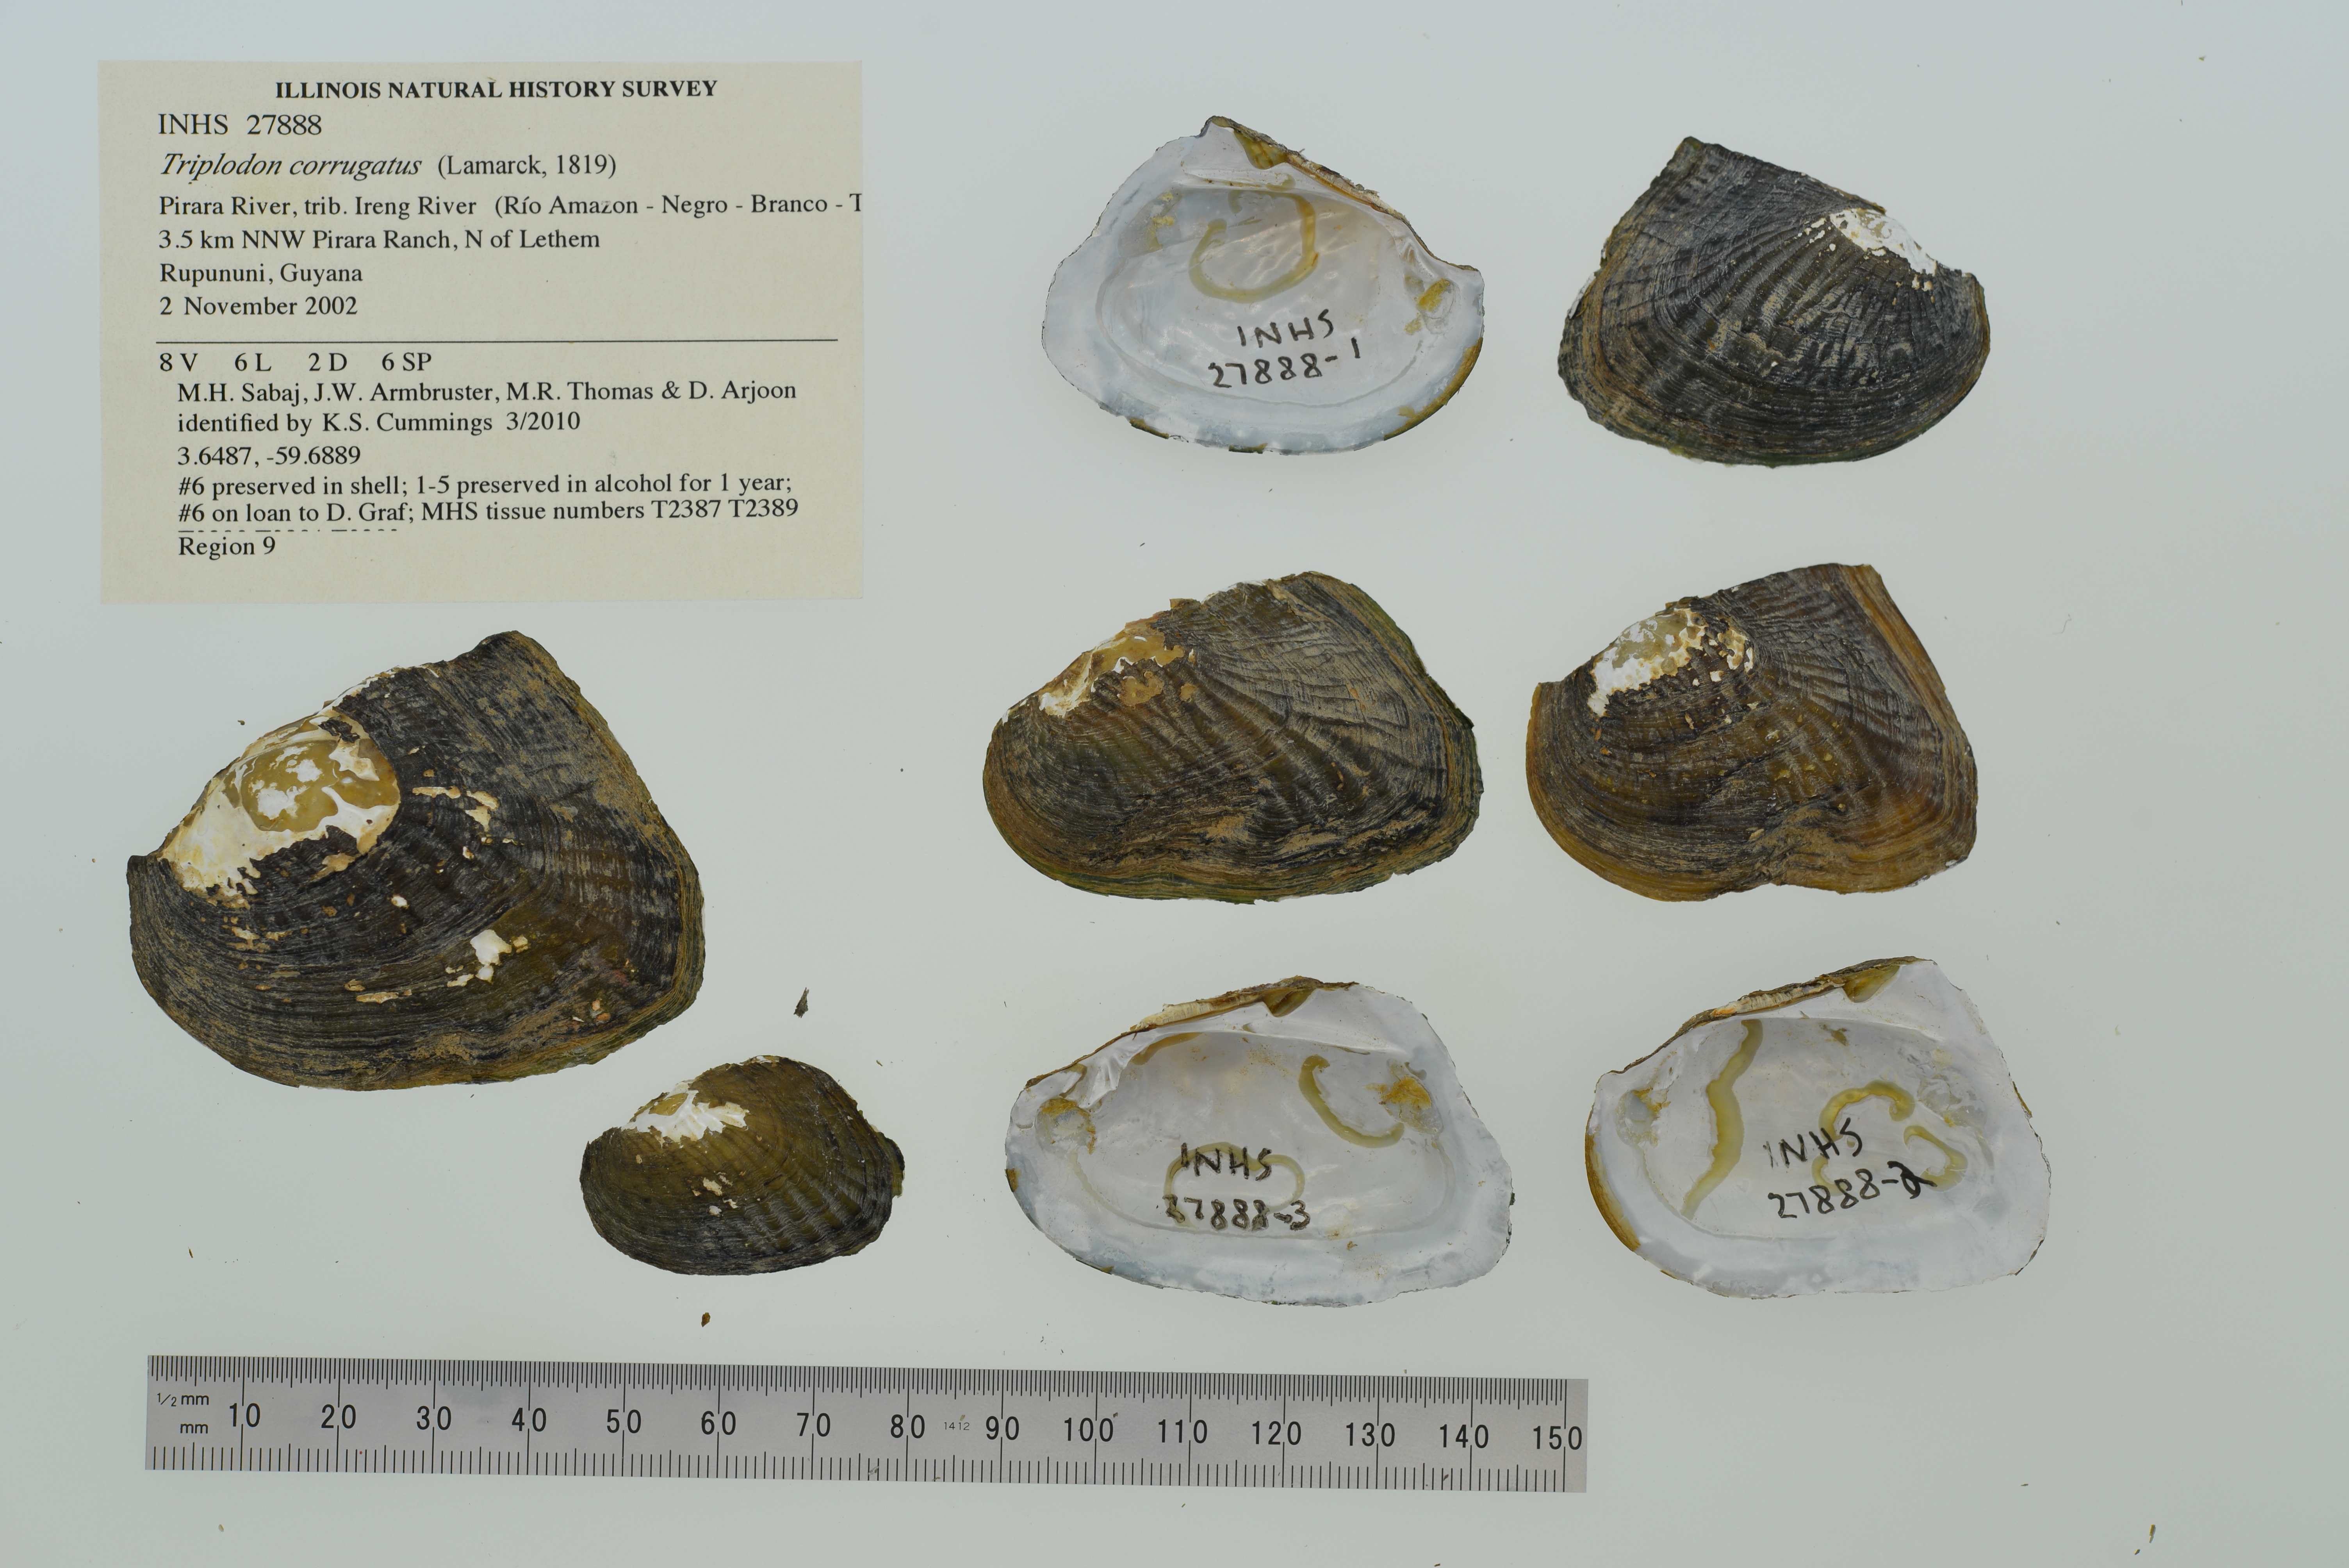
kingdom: Animalia
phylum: Mollusca
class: Bivalvia
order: Unionida
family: Hyriidae
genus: Triplodon
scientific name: Triplodon corrugatus
